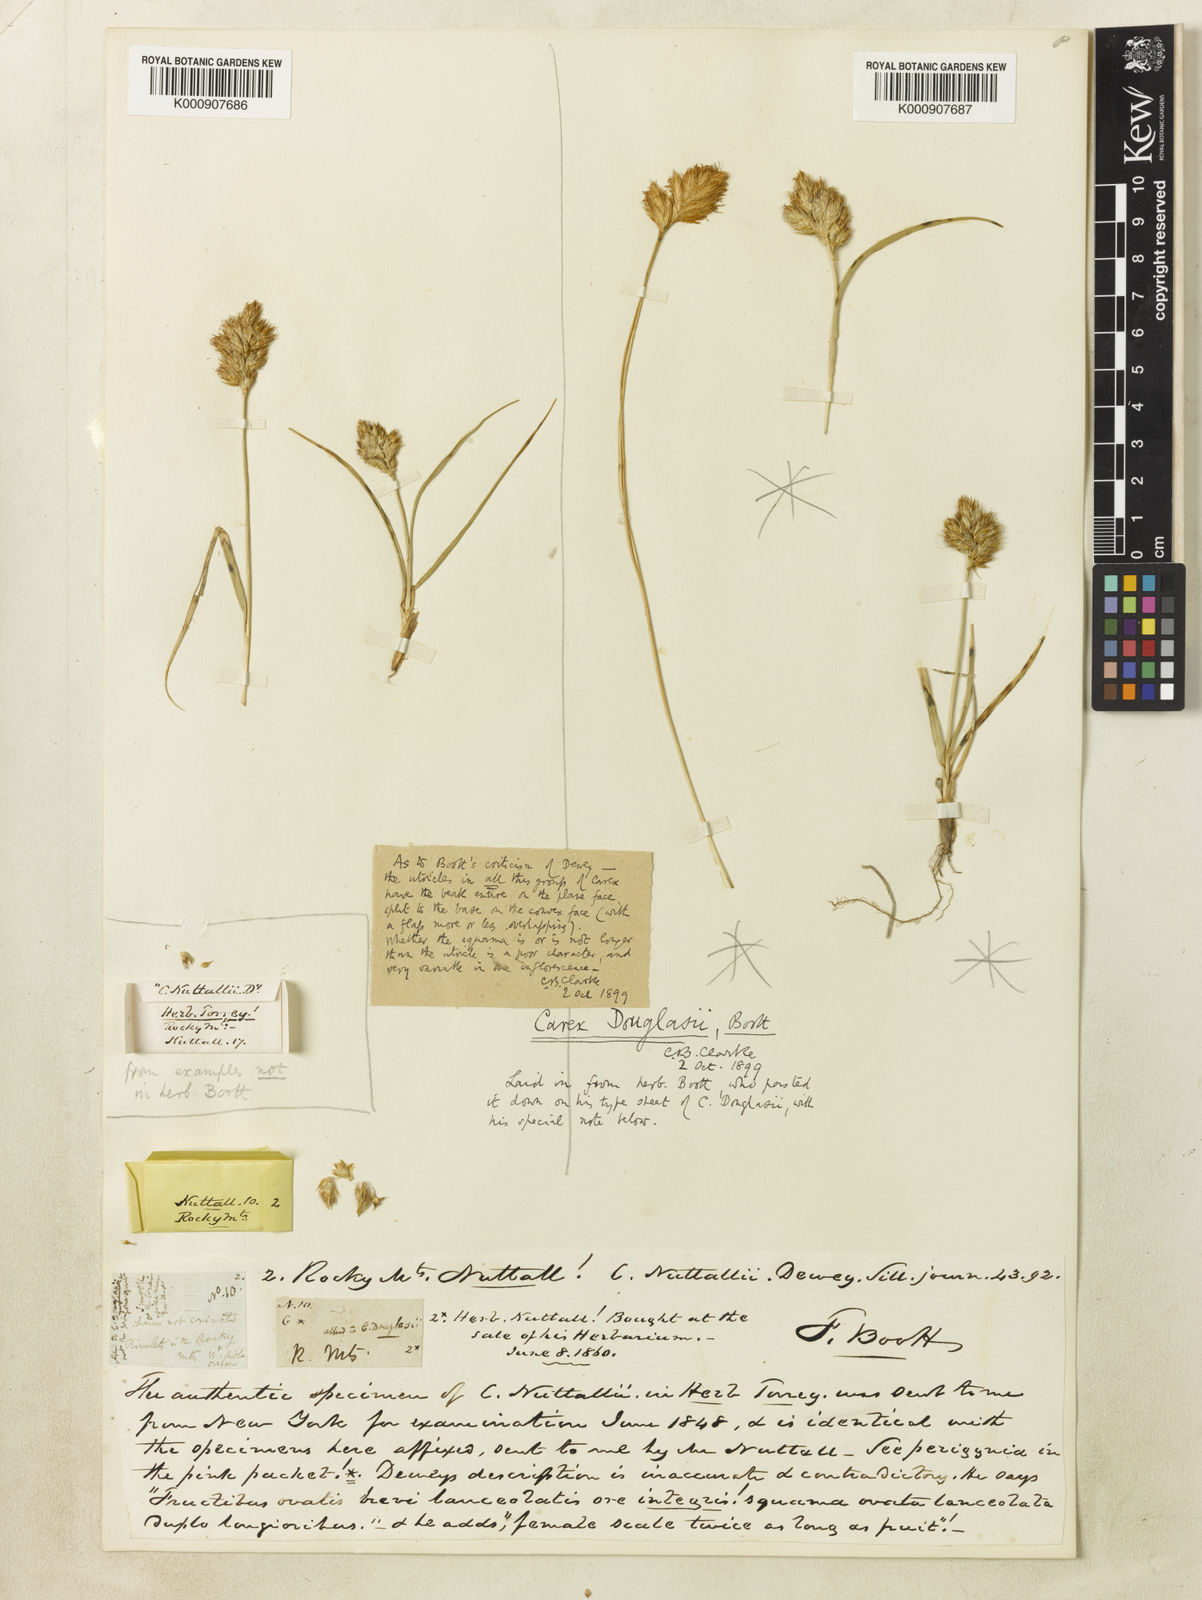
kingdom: Plantae
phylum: Tracheophyta
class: Liliopsida
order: Poales
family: Cyperaceae
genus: Carex
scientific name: Carex douglasii
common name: Douglas' sedge
